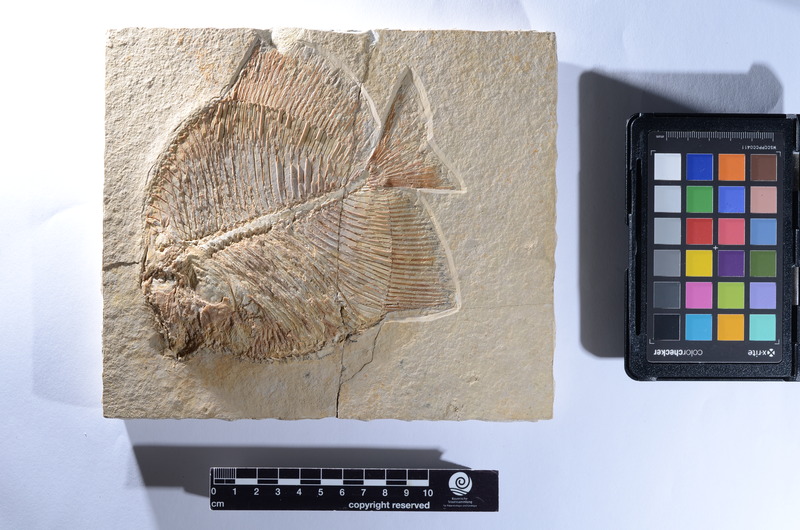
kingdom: Animalia
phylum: Chordata
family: Pycnodontidae
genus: Gyronchus
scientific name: Gyronchus
